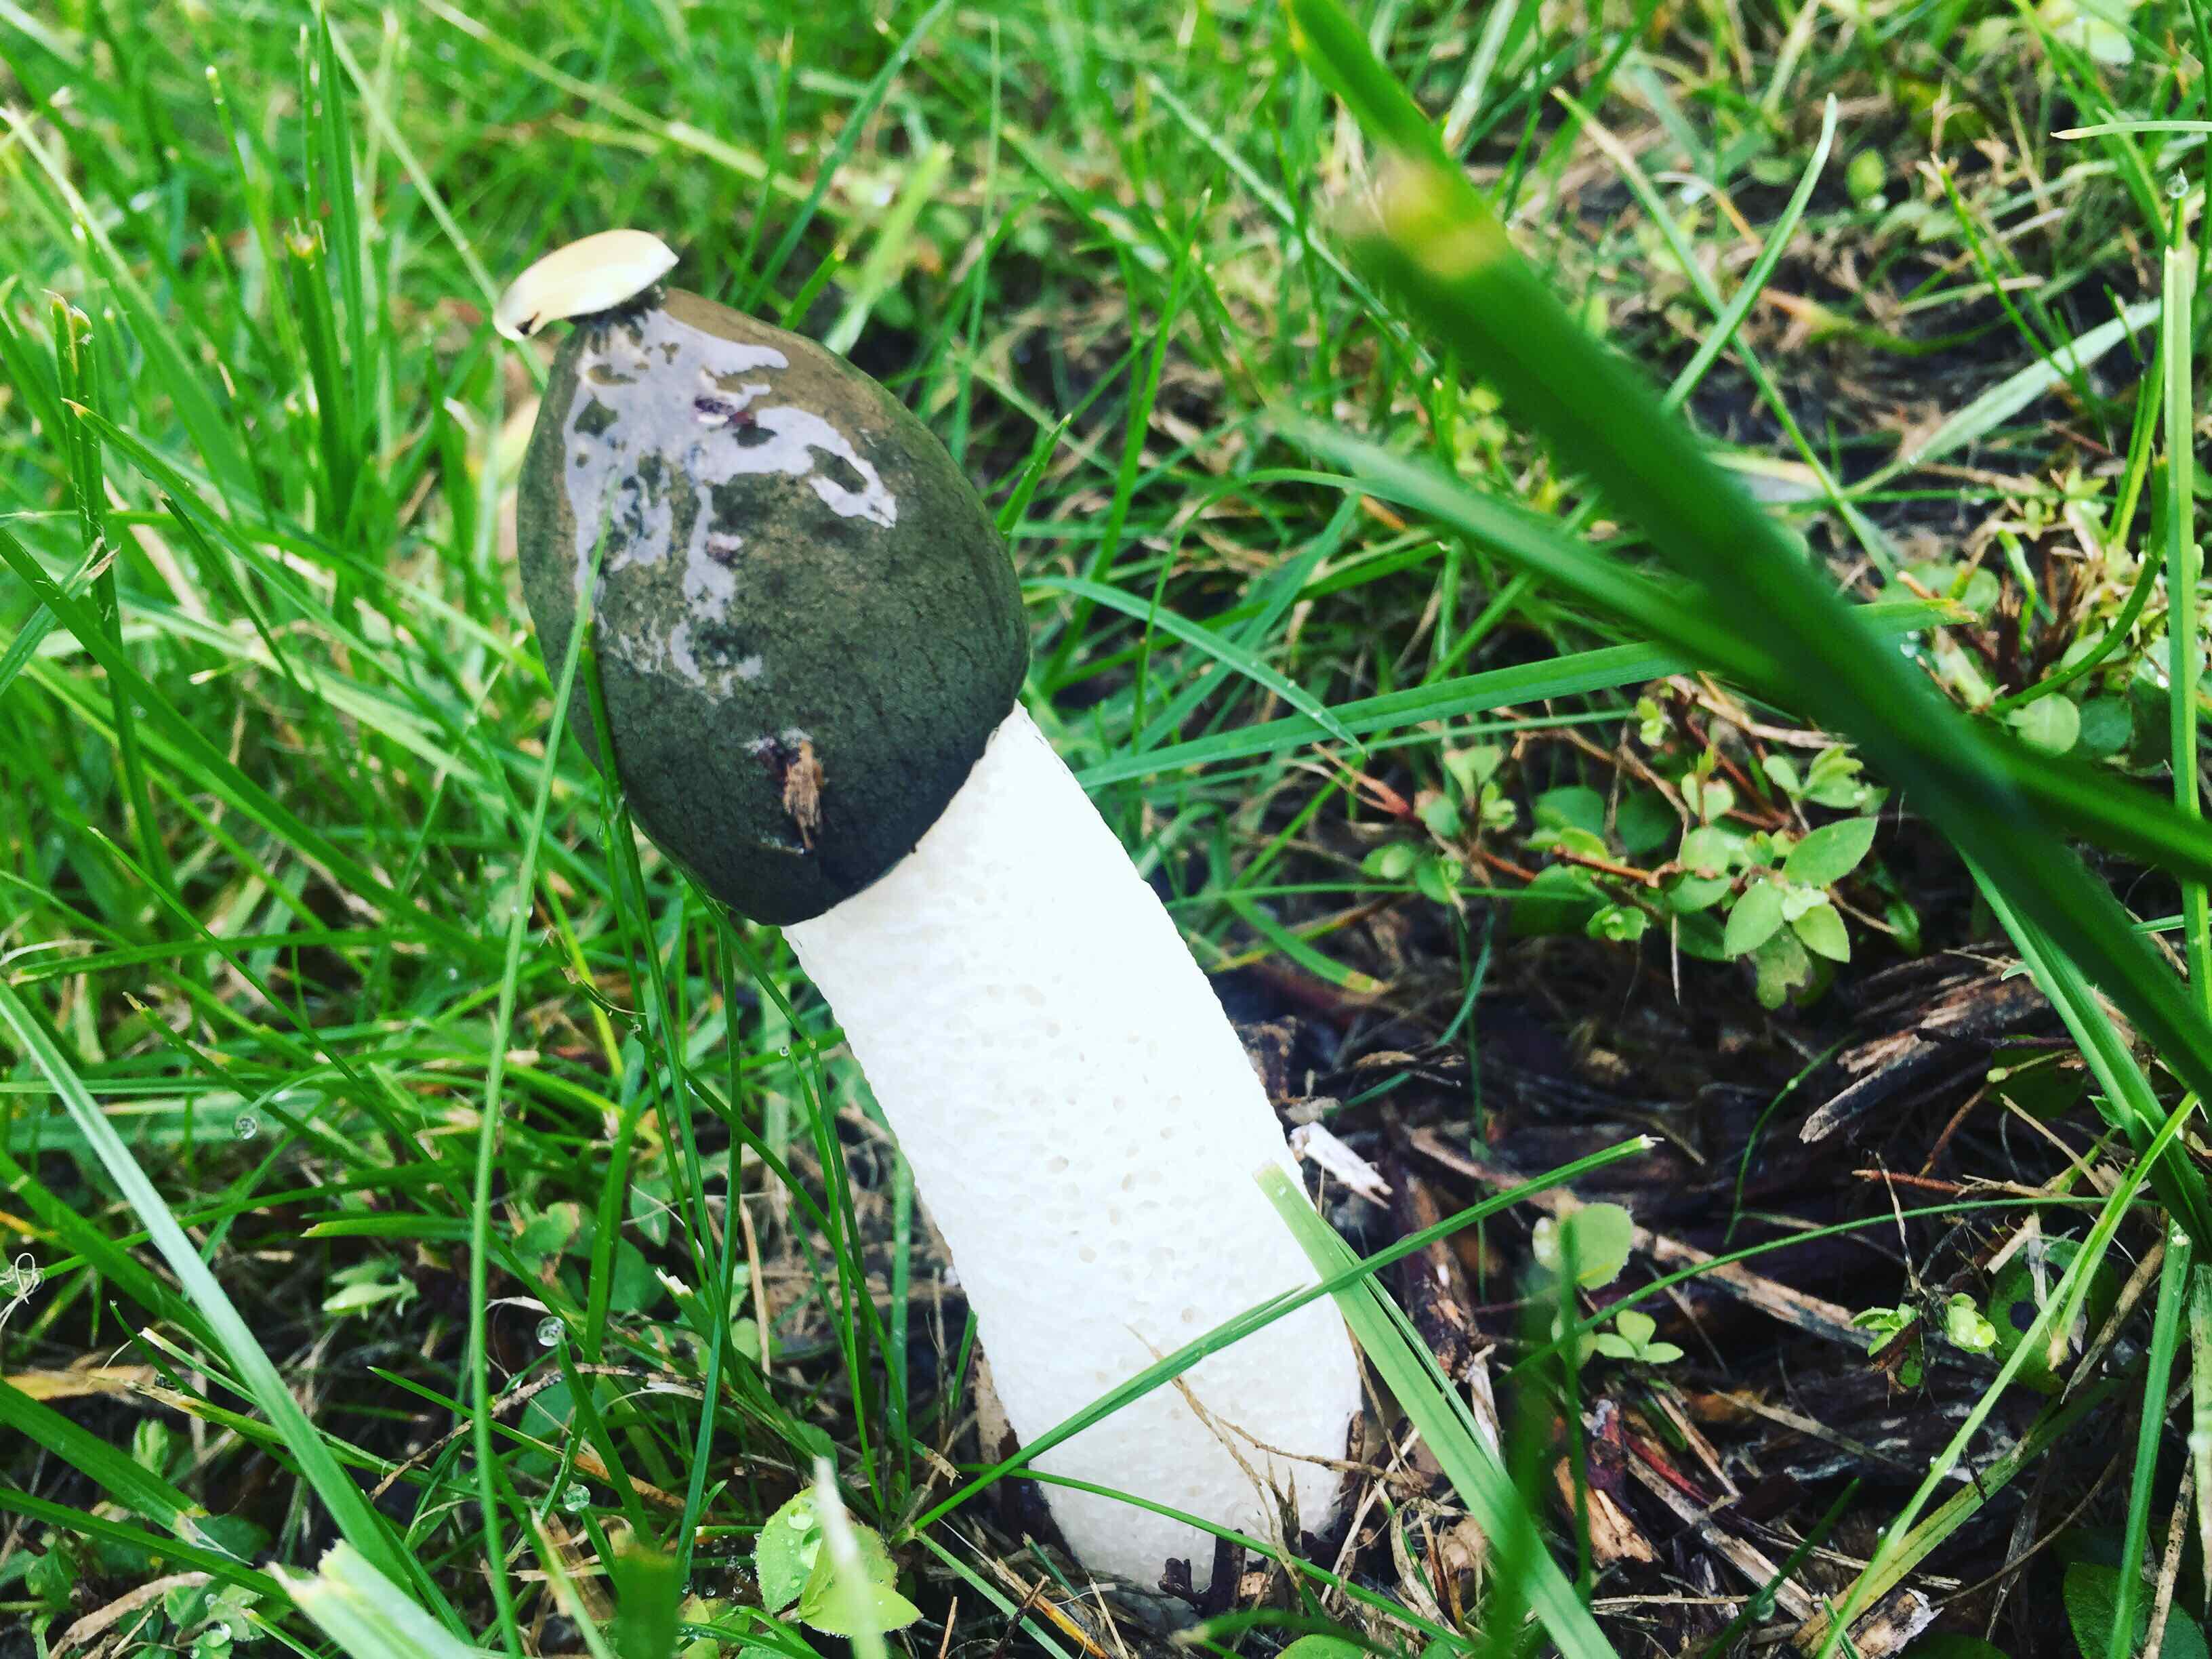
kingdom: Fungi
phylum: Basidiomycota
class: Agaricomycetes
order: Phallales
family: Phallaceae
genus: Phallus
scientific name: Phallus impudicus
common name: almindelig stinksvamp
